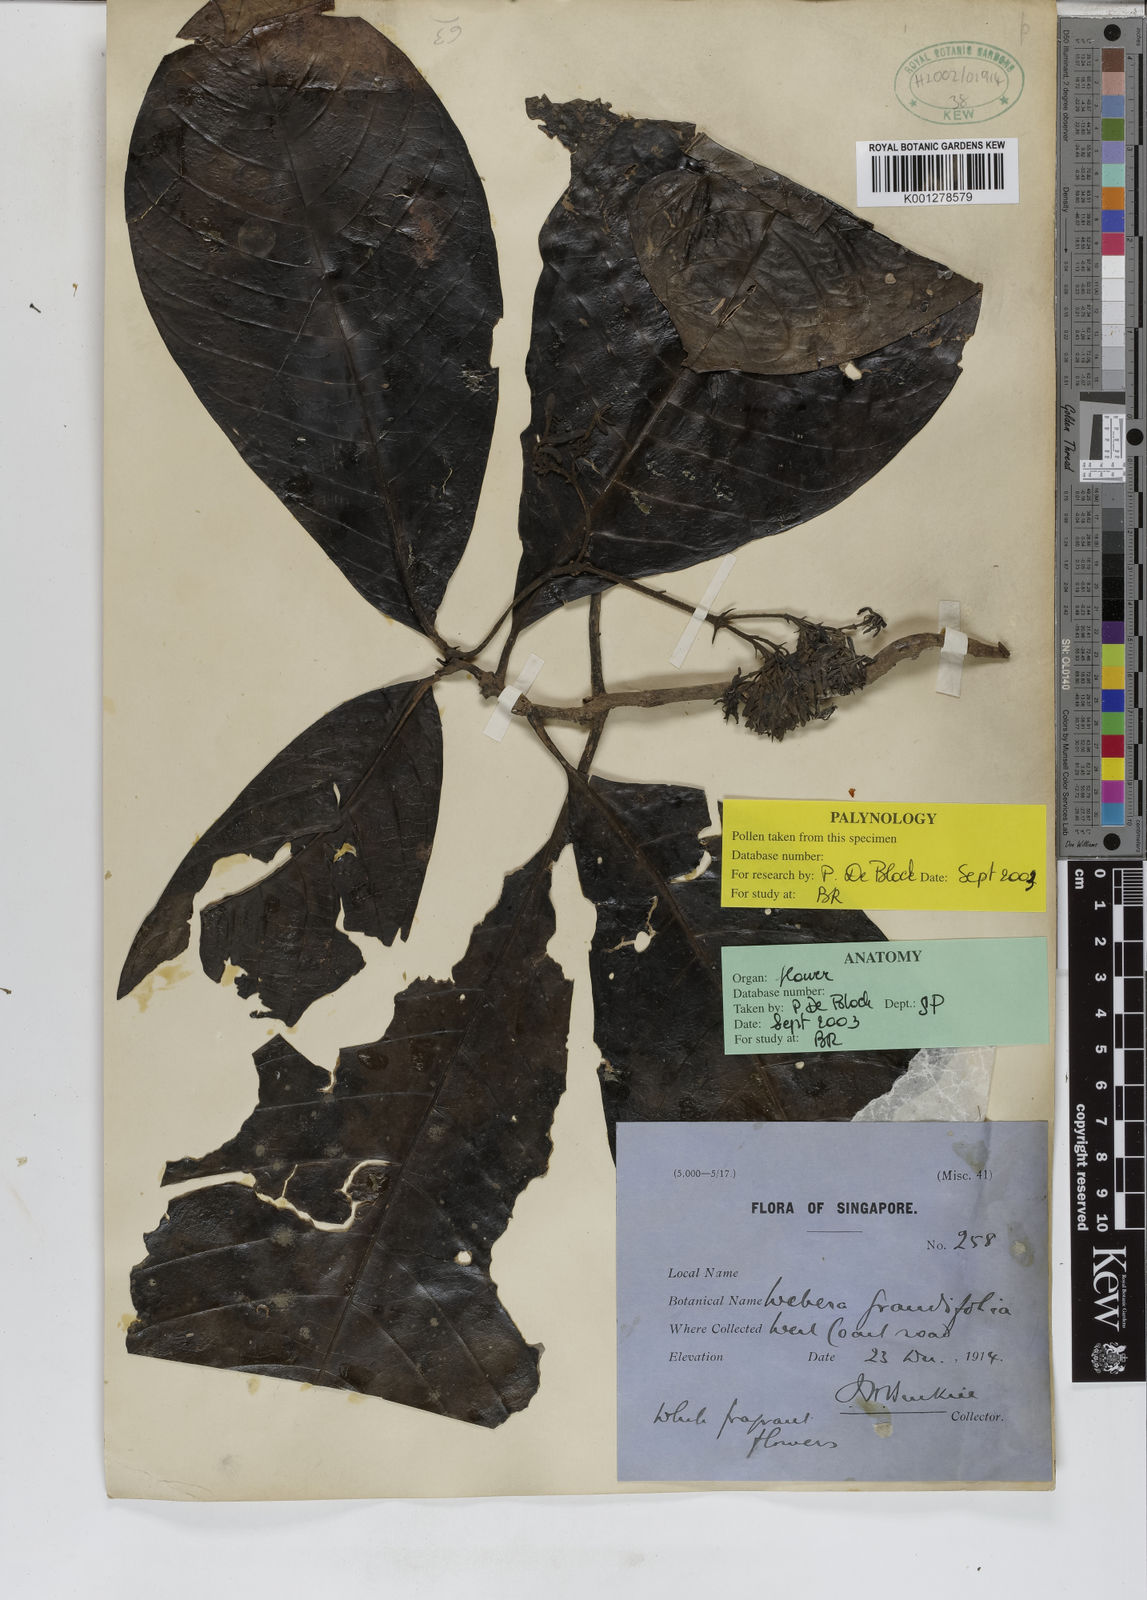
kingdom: Plantae
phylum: Tracheophyta
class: Magnoliopsida
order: Gentianales
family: Rubiaceae
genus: Tarenna
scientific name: Tarenna odorata
